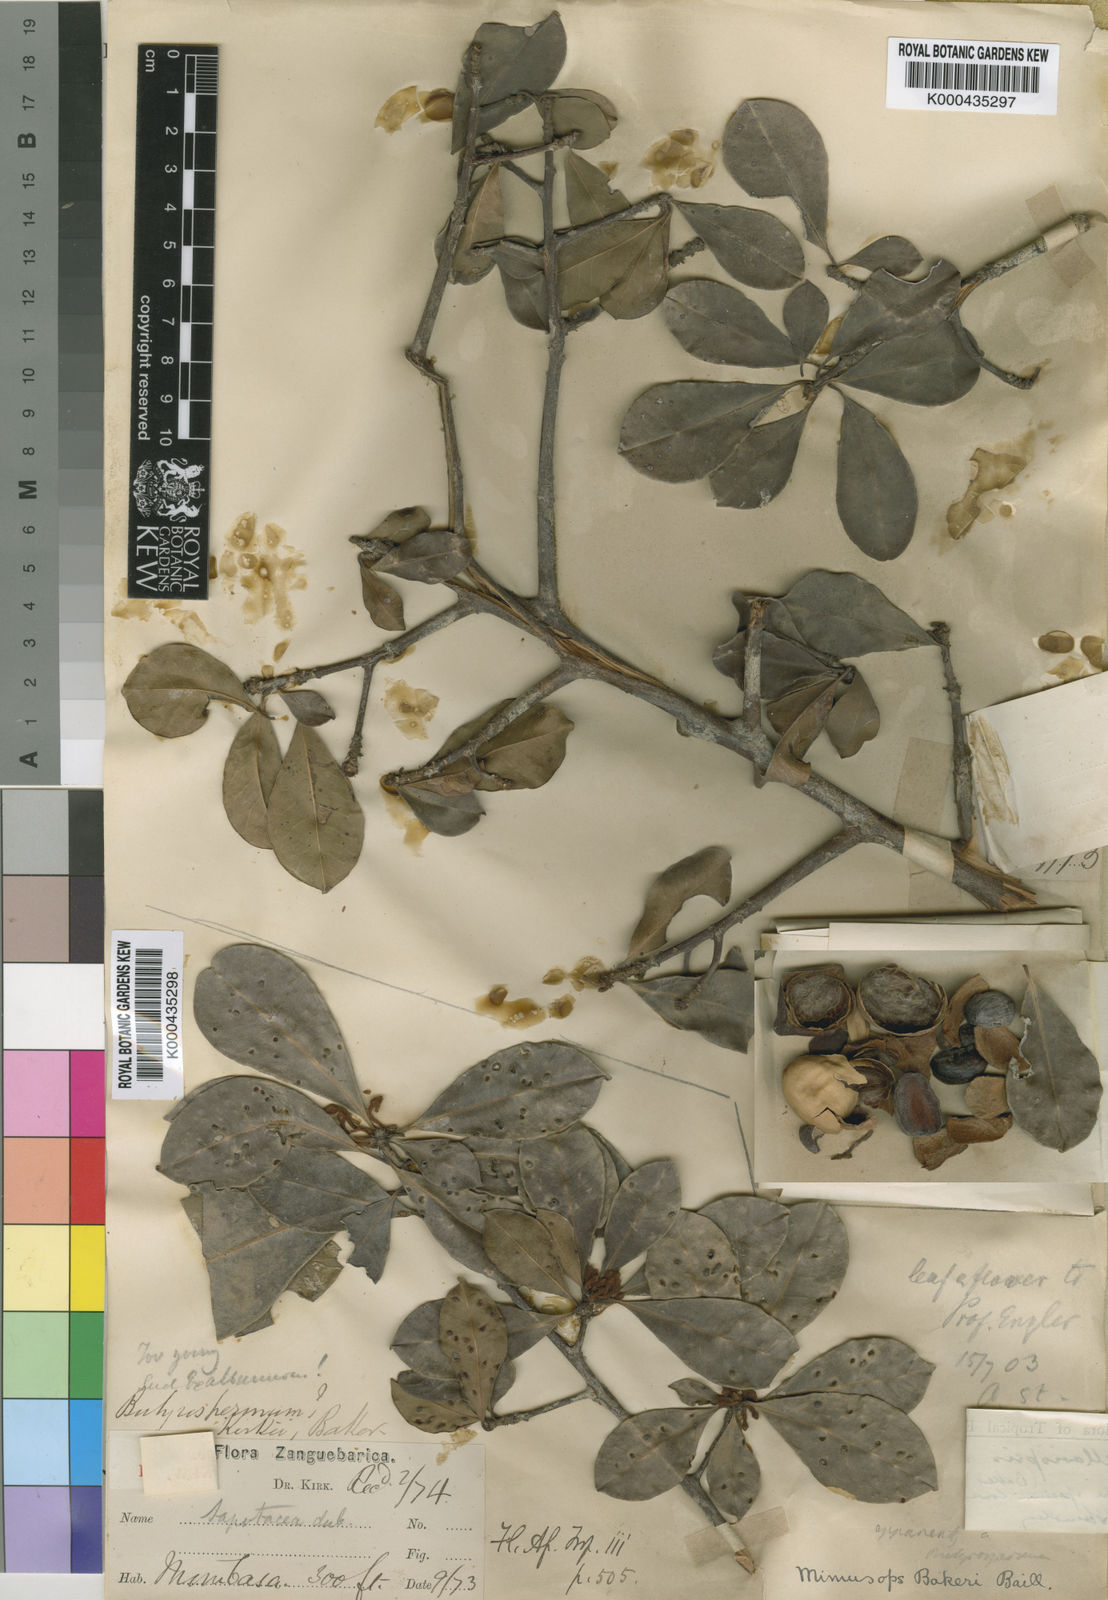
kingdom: Plantae
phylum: Tracheophyta
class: Magnoliopsida
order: Ericales
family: Sapotaceae
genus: Vitellariopsis
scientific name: Vitellariopsis kirkii
